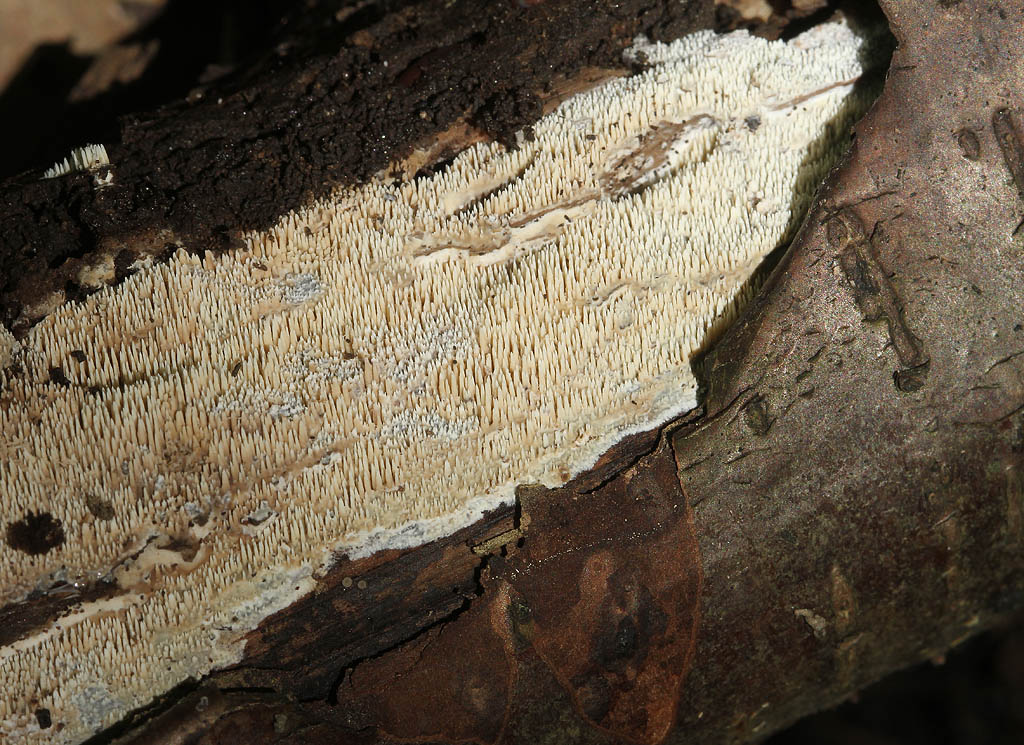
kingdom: Fungi
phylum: Basidiomycota
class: Agaricomycetes
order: Polyporales
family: Meruliaceae
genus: Mycoacia
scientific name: Mycoacia fuscoatra
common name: mørk vokspig
